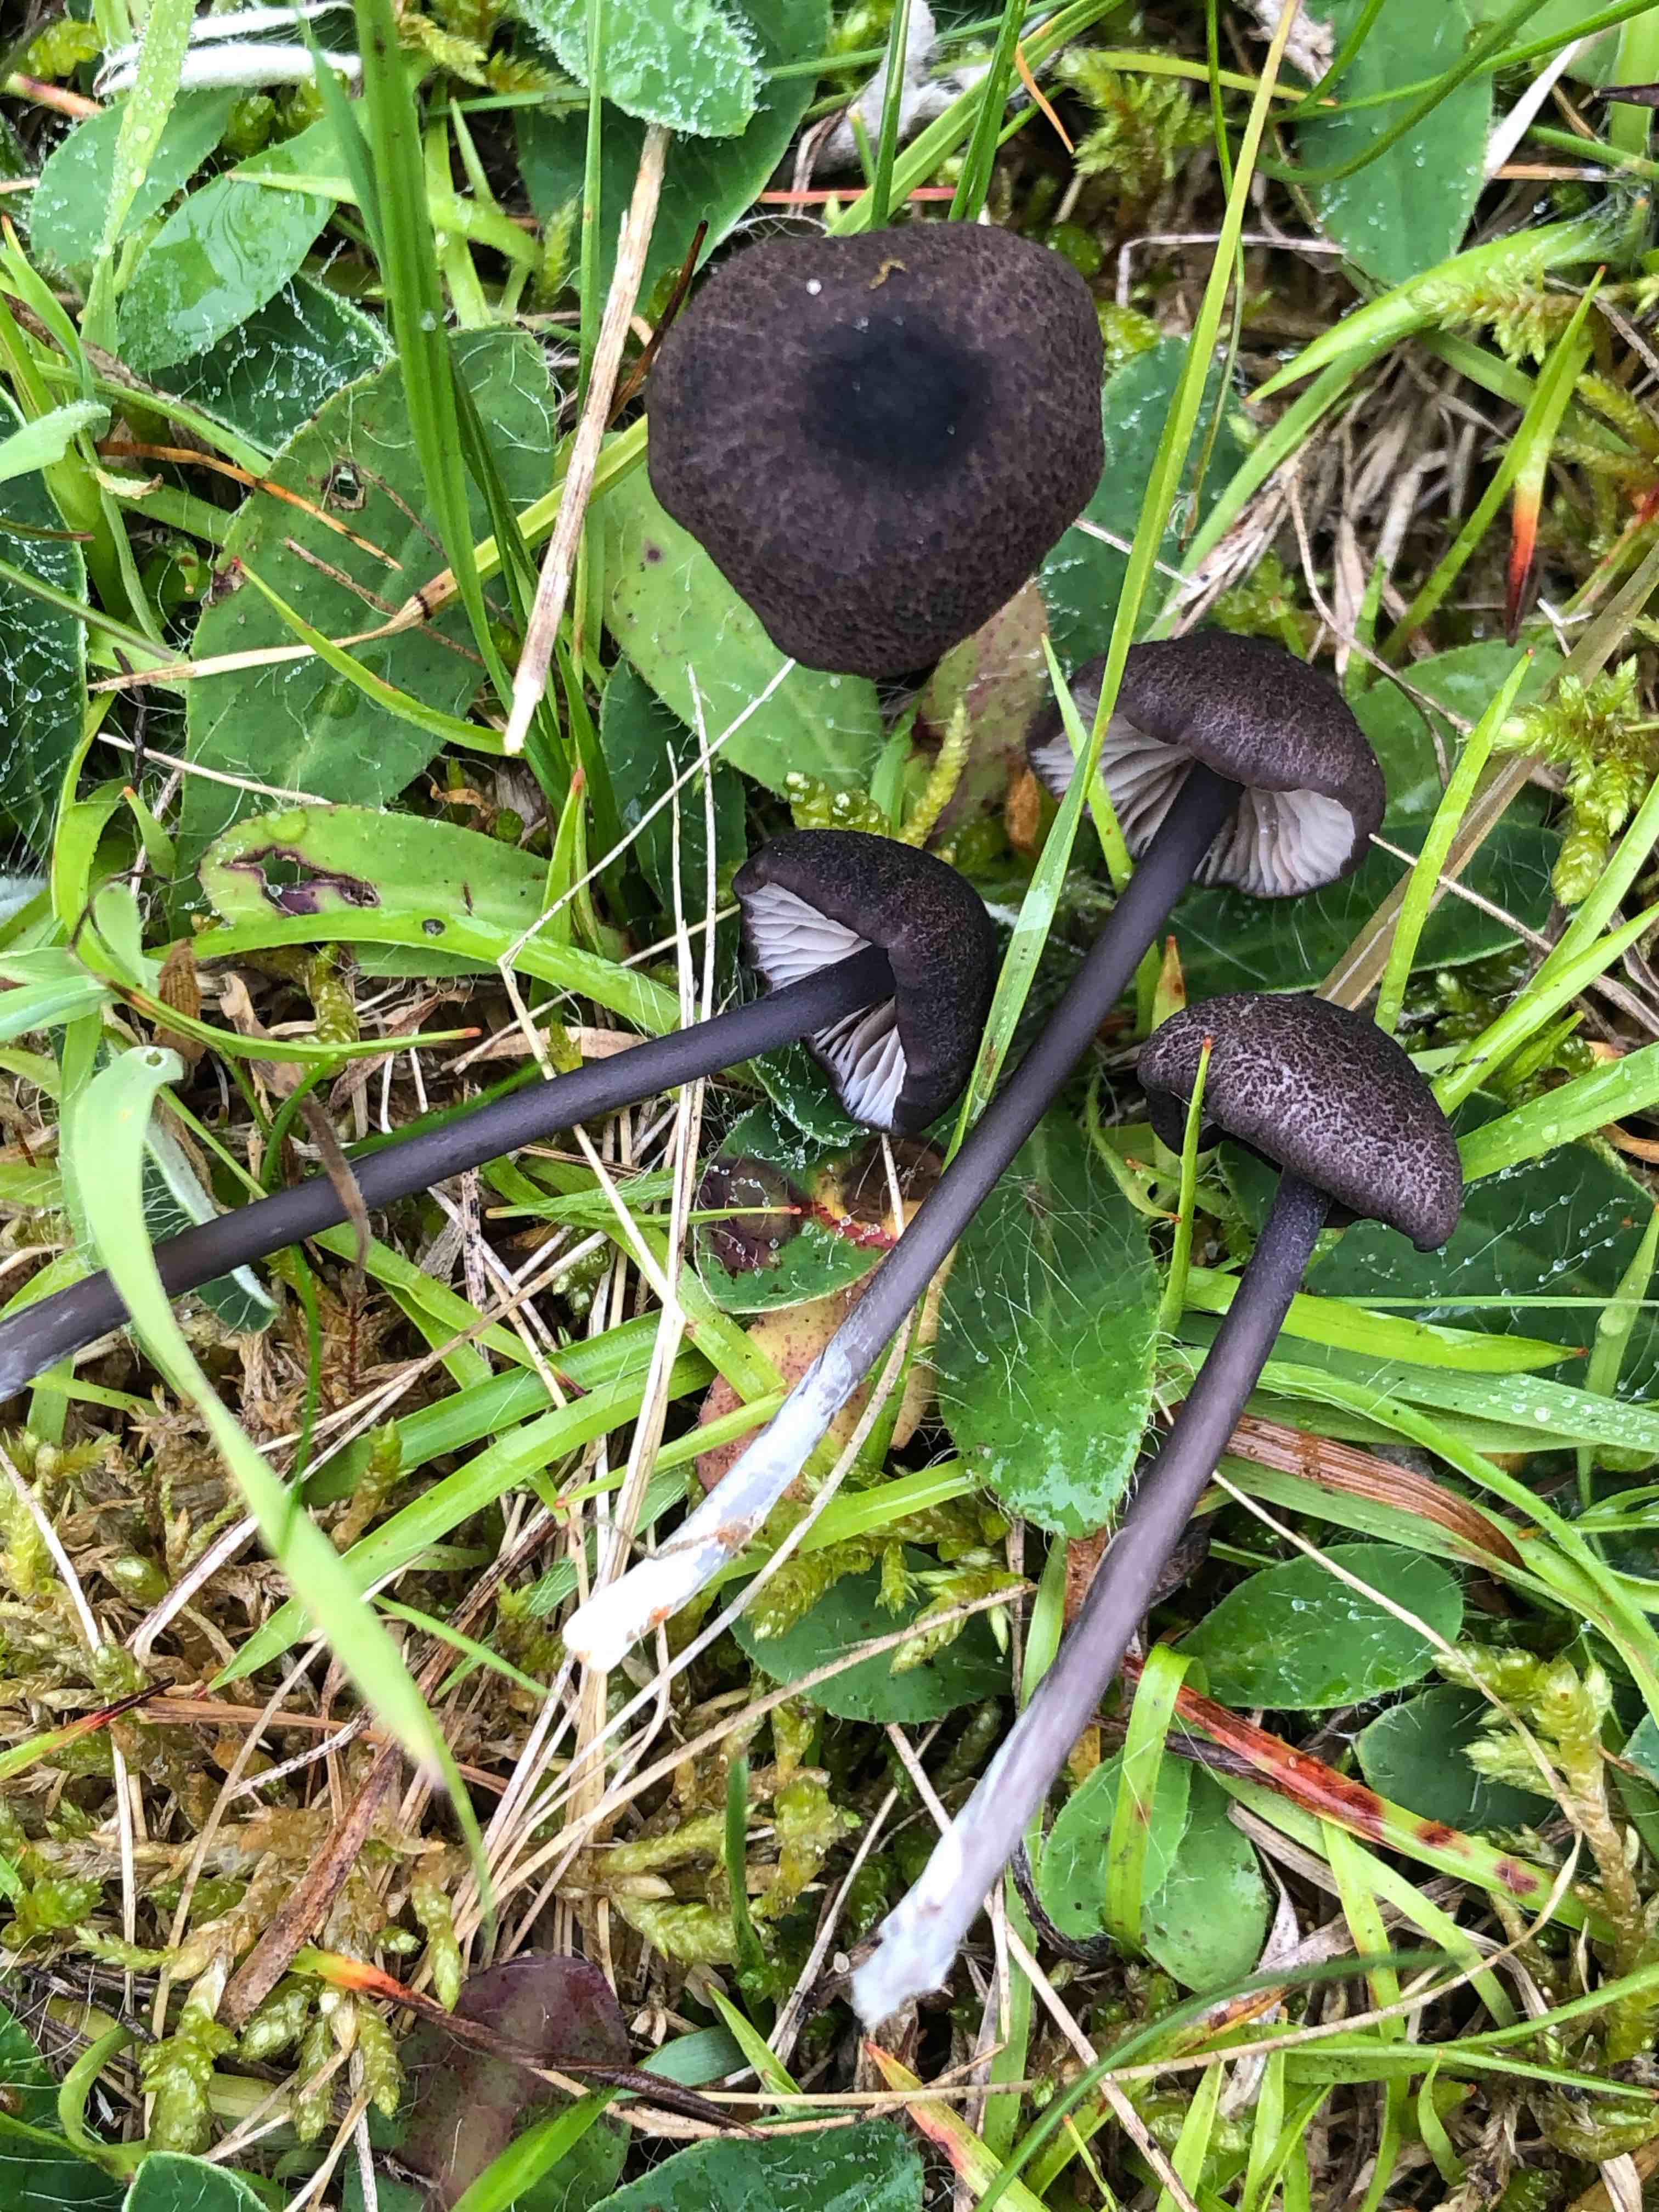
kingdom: Fungi
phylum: Basidiomycota
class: Agaricomycetes
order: Agaricales
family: Entolomataceae
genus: Entoloma
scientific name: Entoloma
